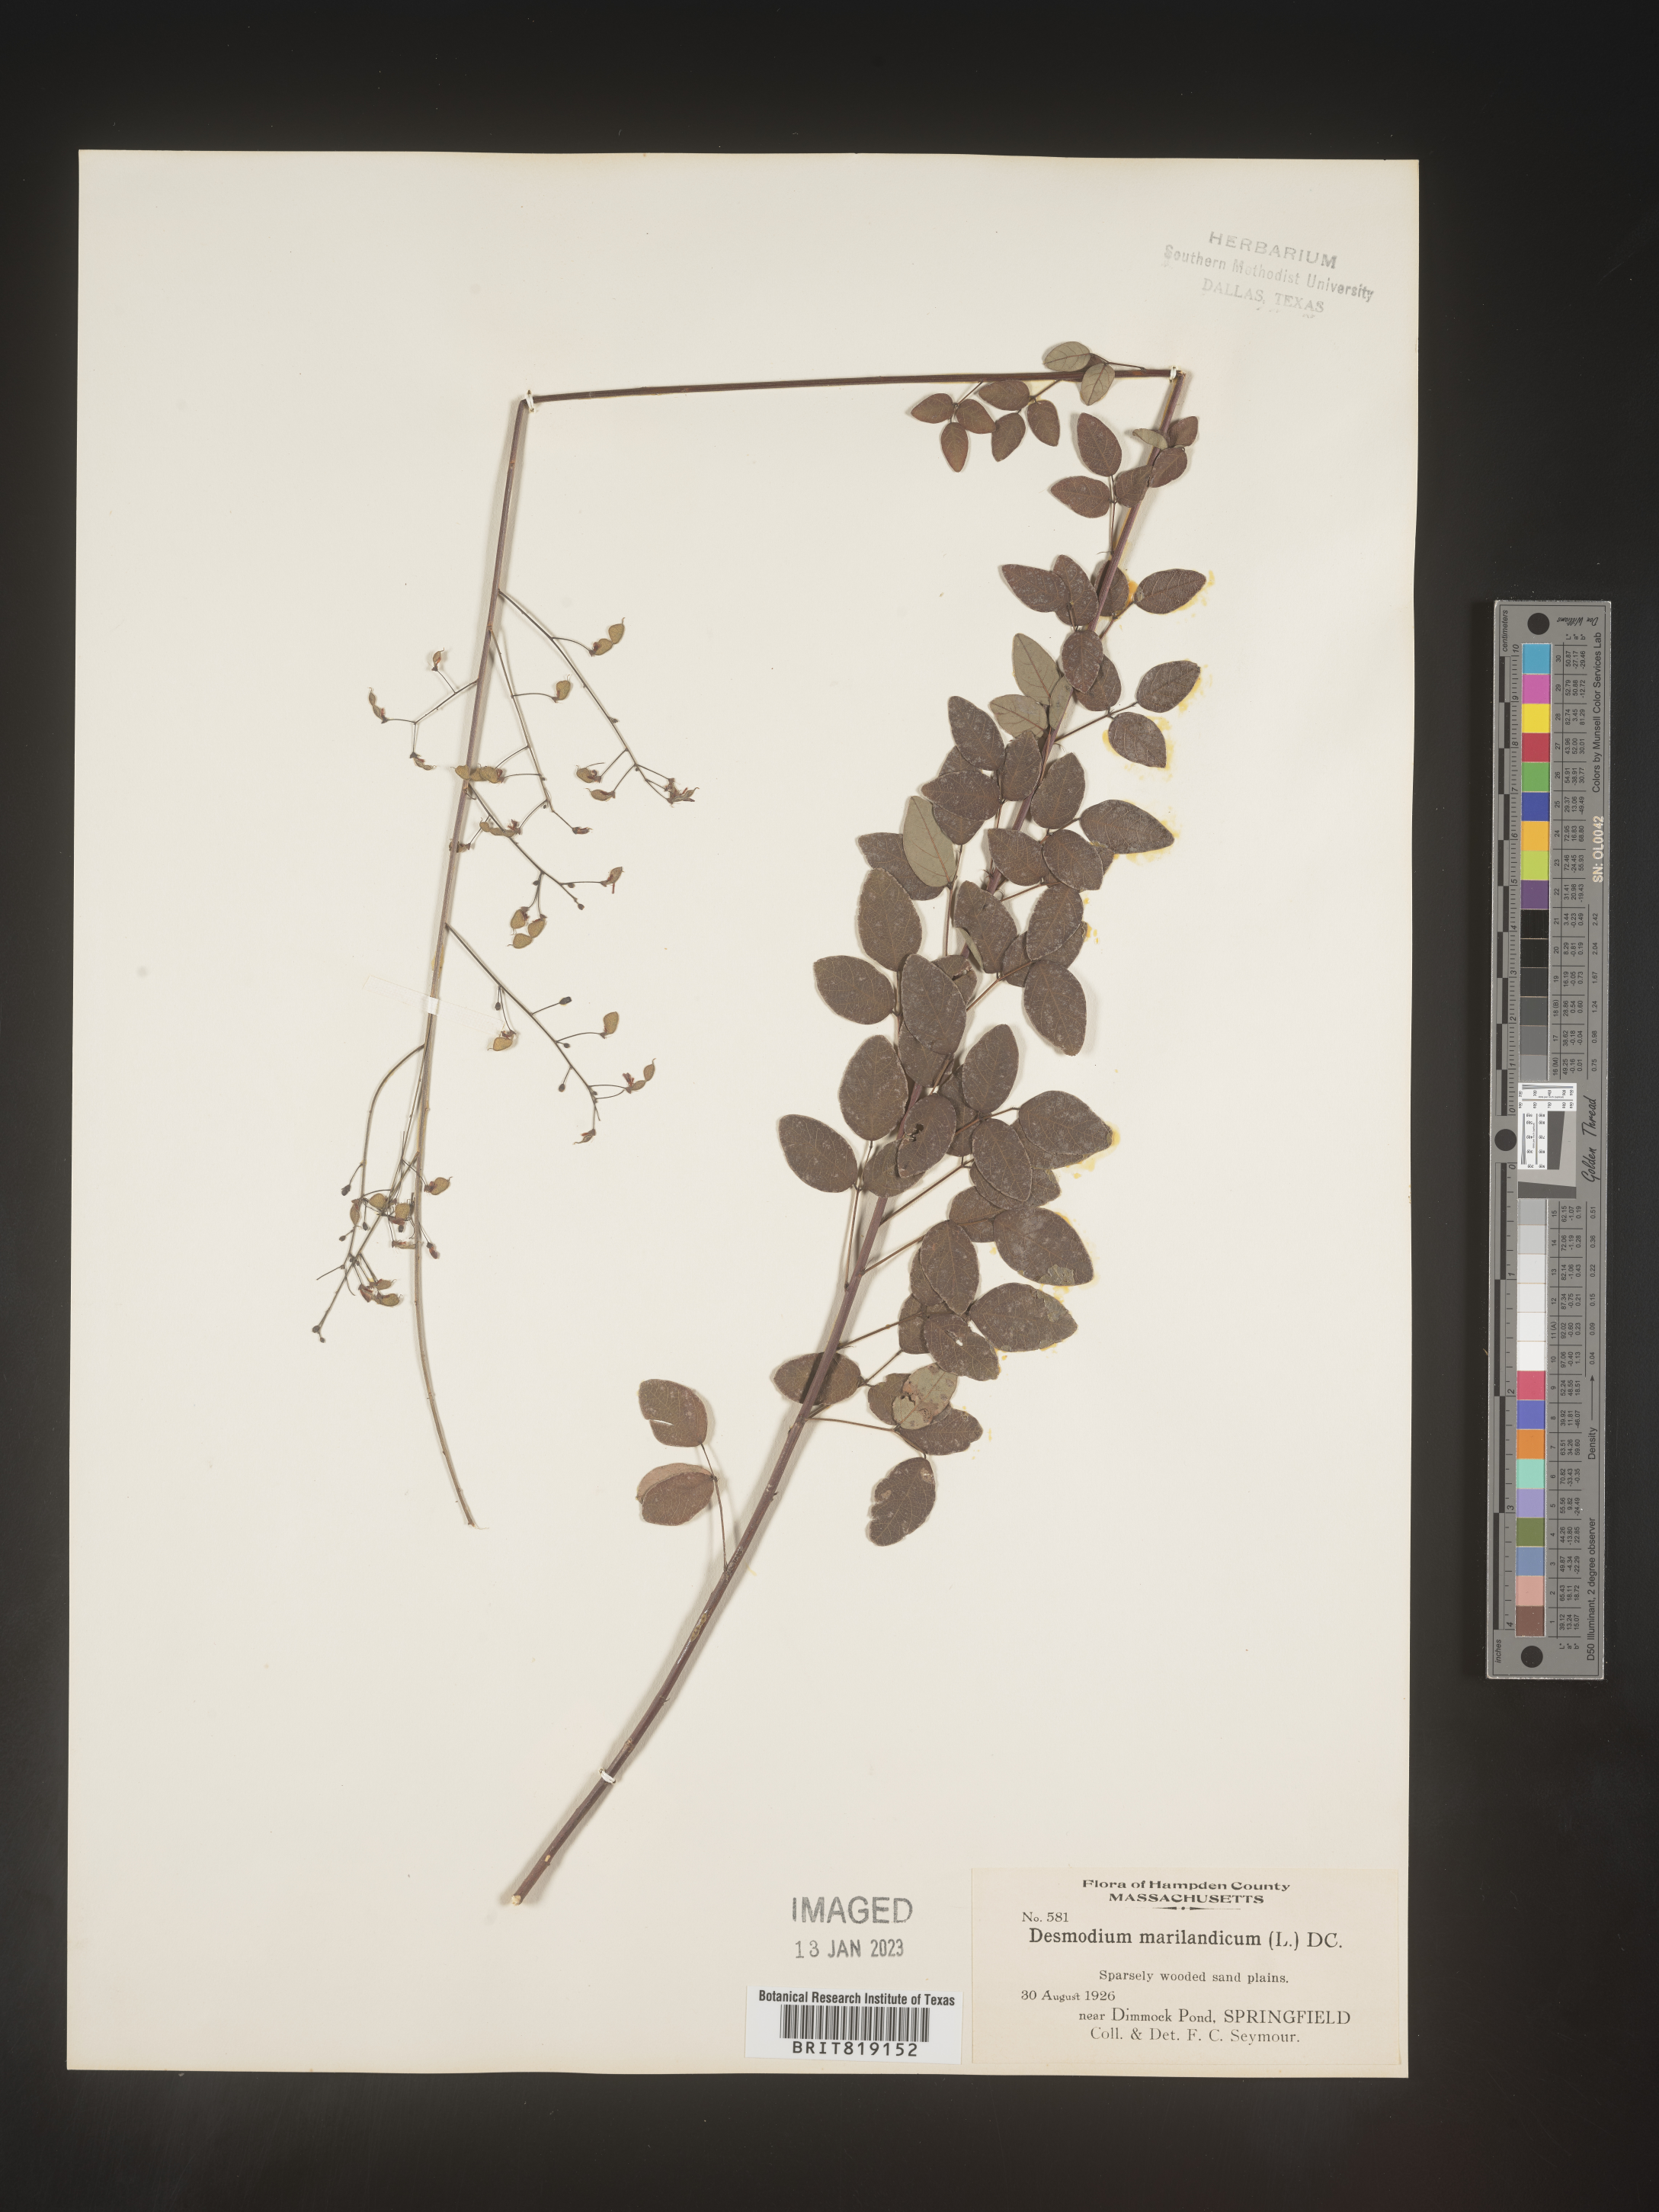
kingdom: Plantae
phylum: Tracheophyta
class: Magnoliopsida
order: Fabales
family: Fabaceae
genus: Desmodium
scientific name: Desmodium marilandicum
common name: Maryland tick-trefoil
